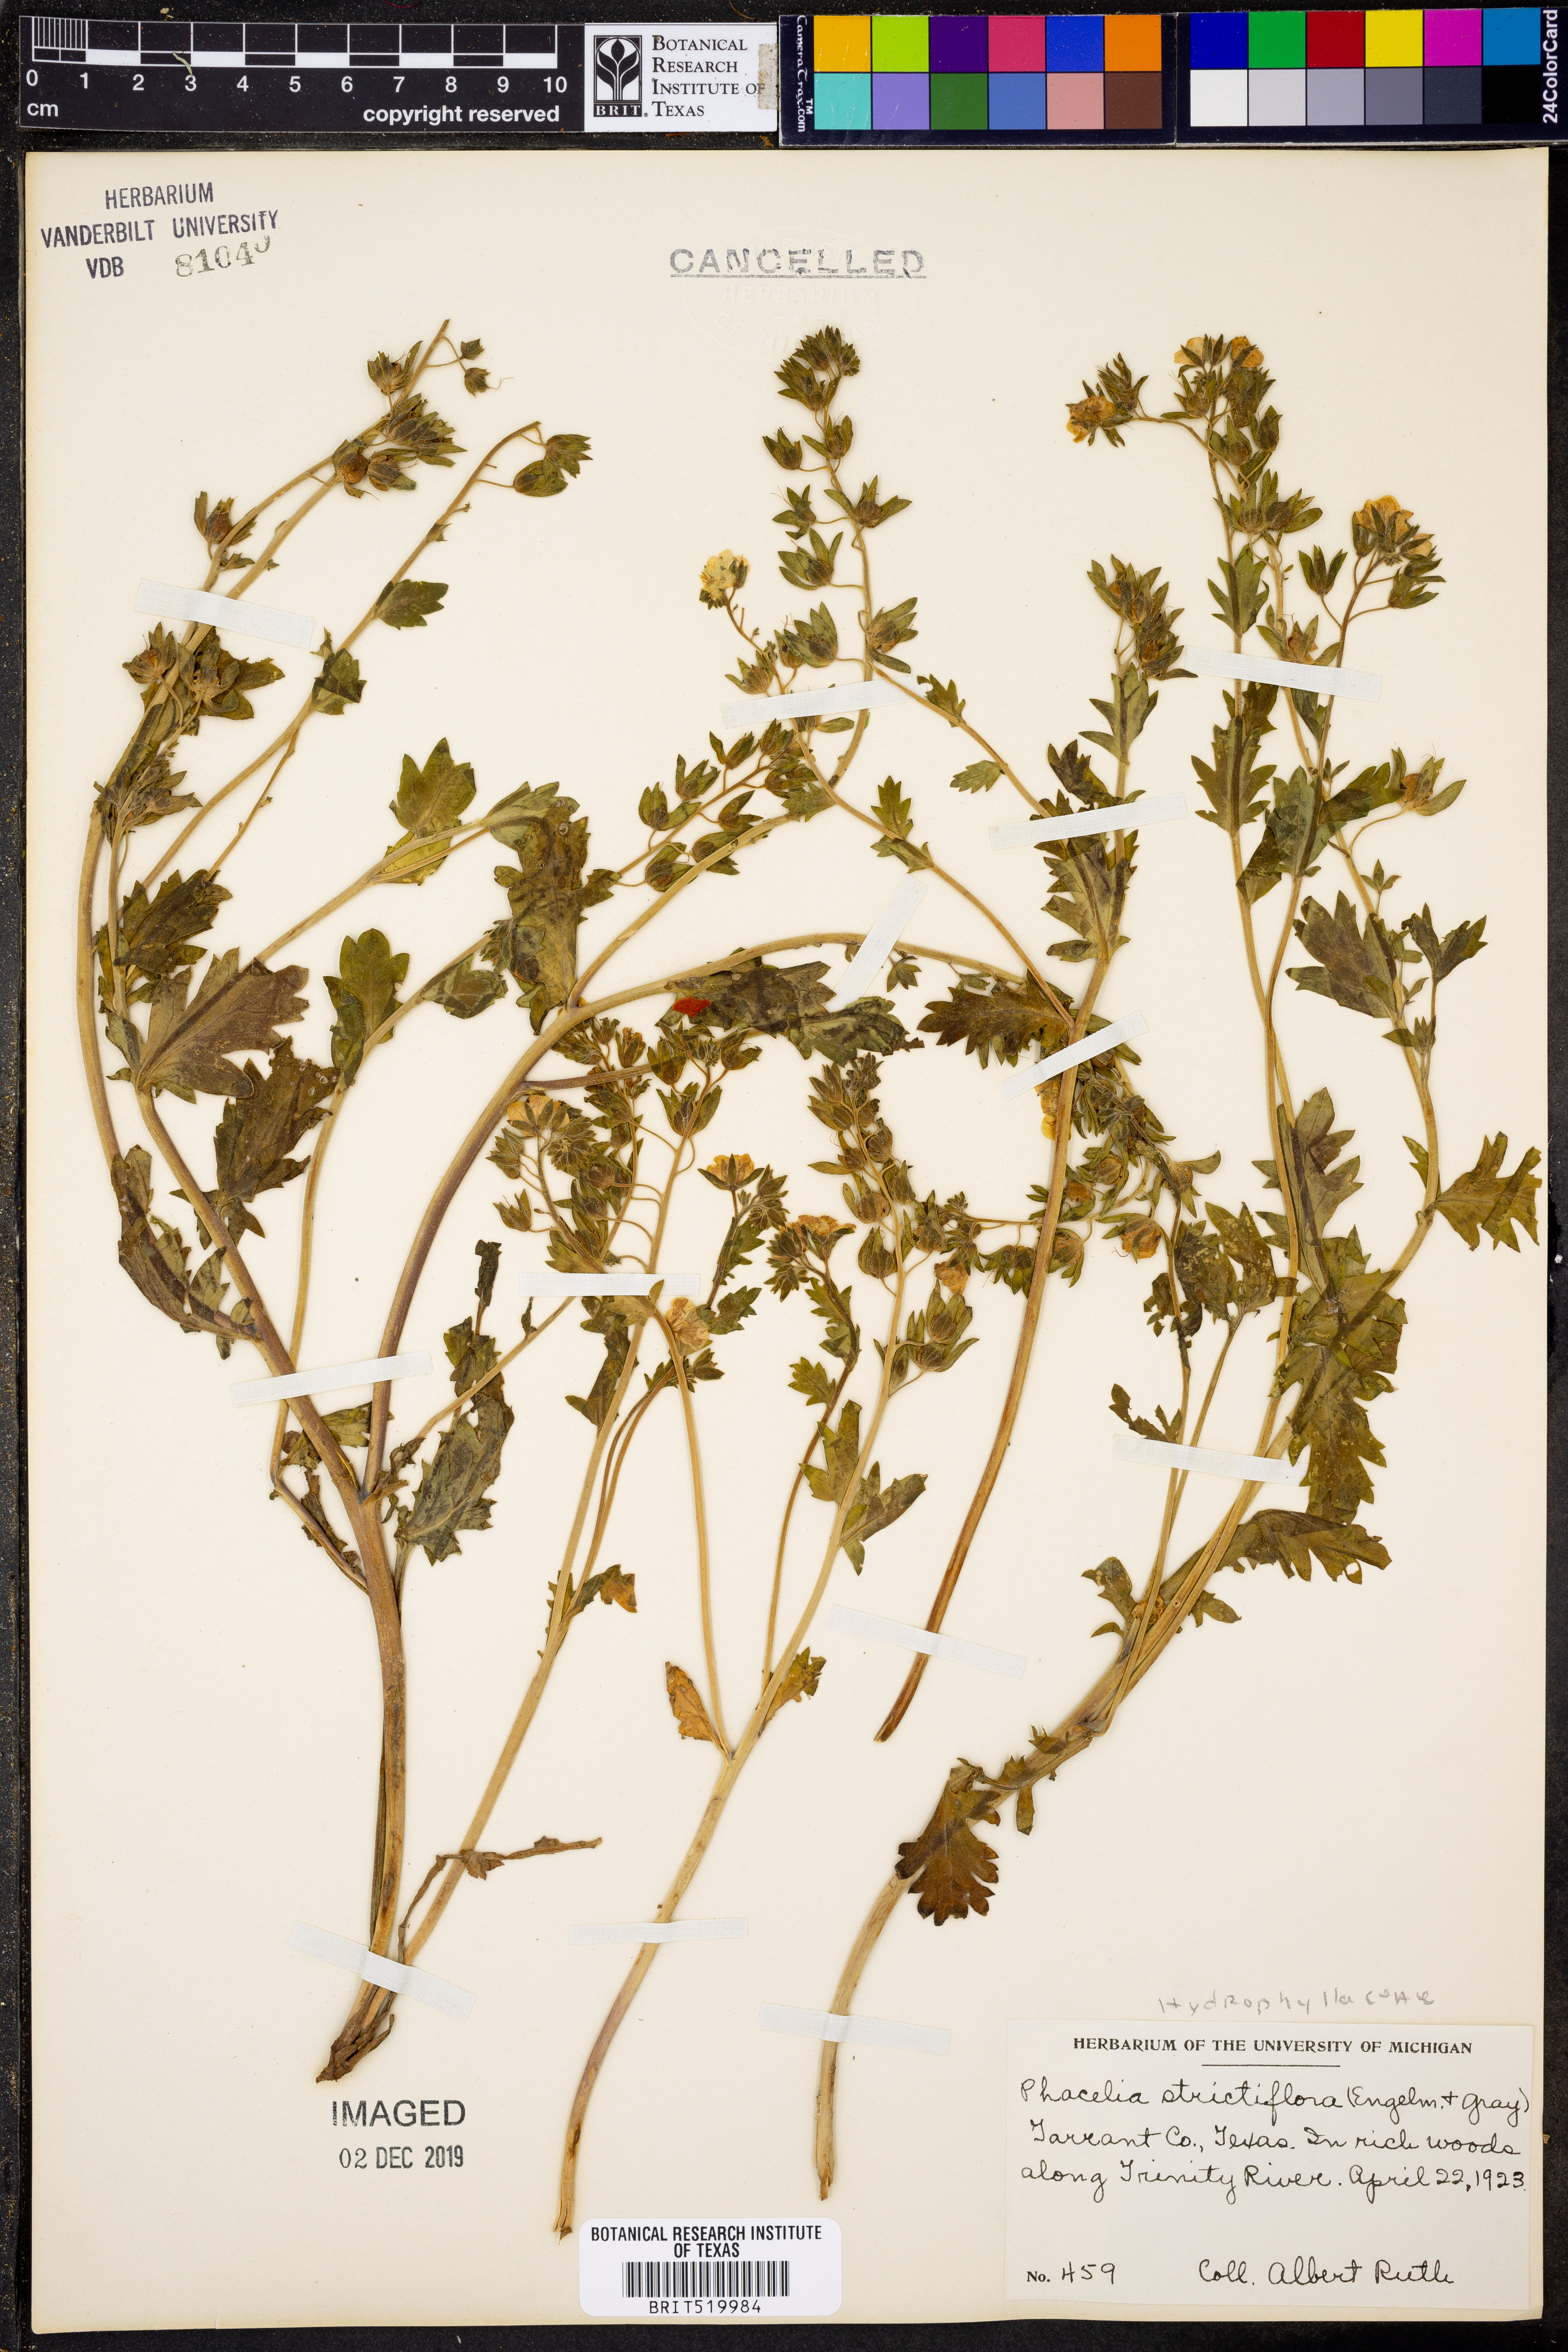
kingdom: Plantae
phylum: Tracheophyta
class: Magnoliopsida
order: Boraginales
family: Hydrophyllaceae
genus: Phacelia
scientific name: Phacelia strictiflora
